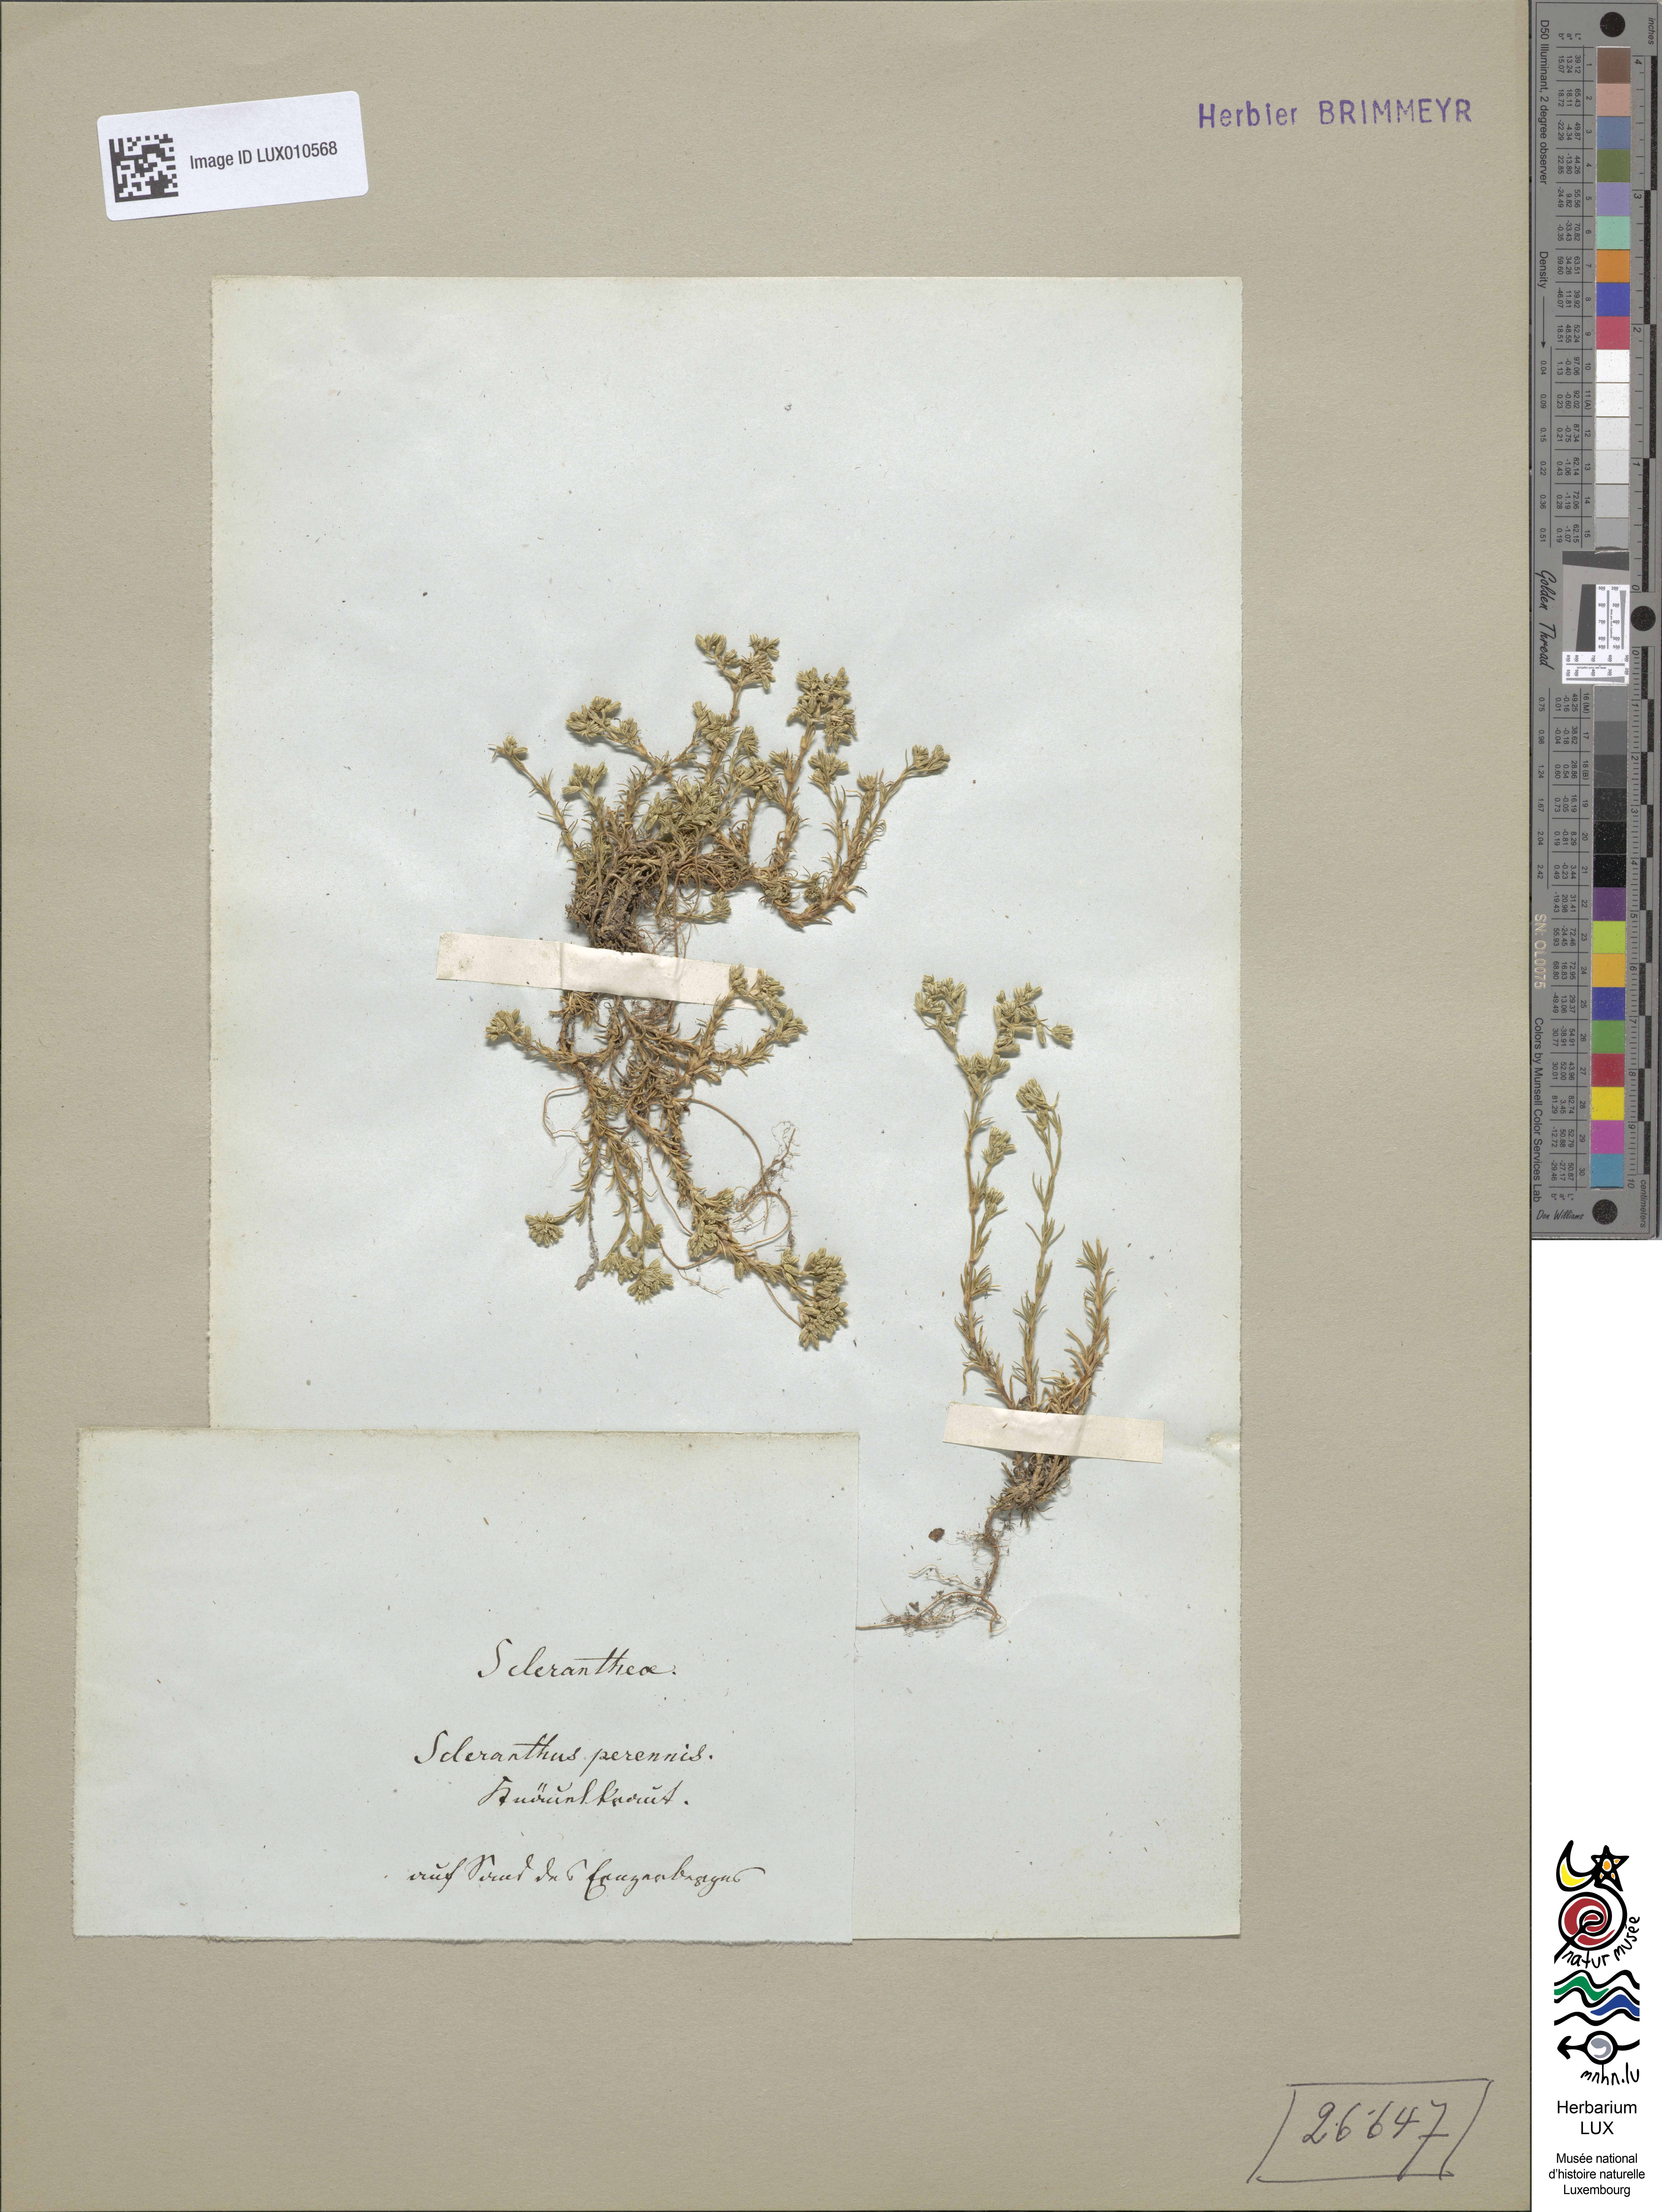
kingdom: Plantae
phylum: Tracheophyta
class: Magnoliopsida
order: Caryophyllales
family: Caryophyllaceae
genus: Scleranthus
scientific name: Scleranthus perennis
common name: Perennial knawel
